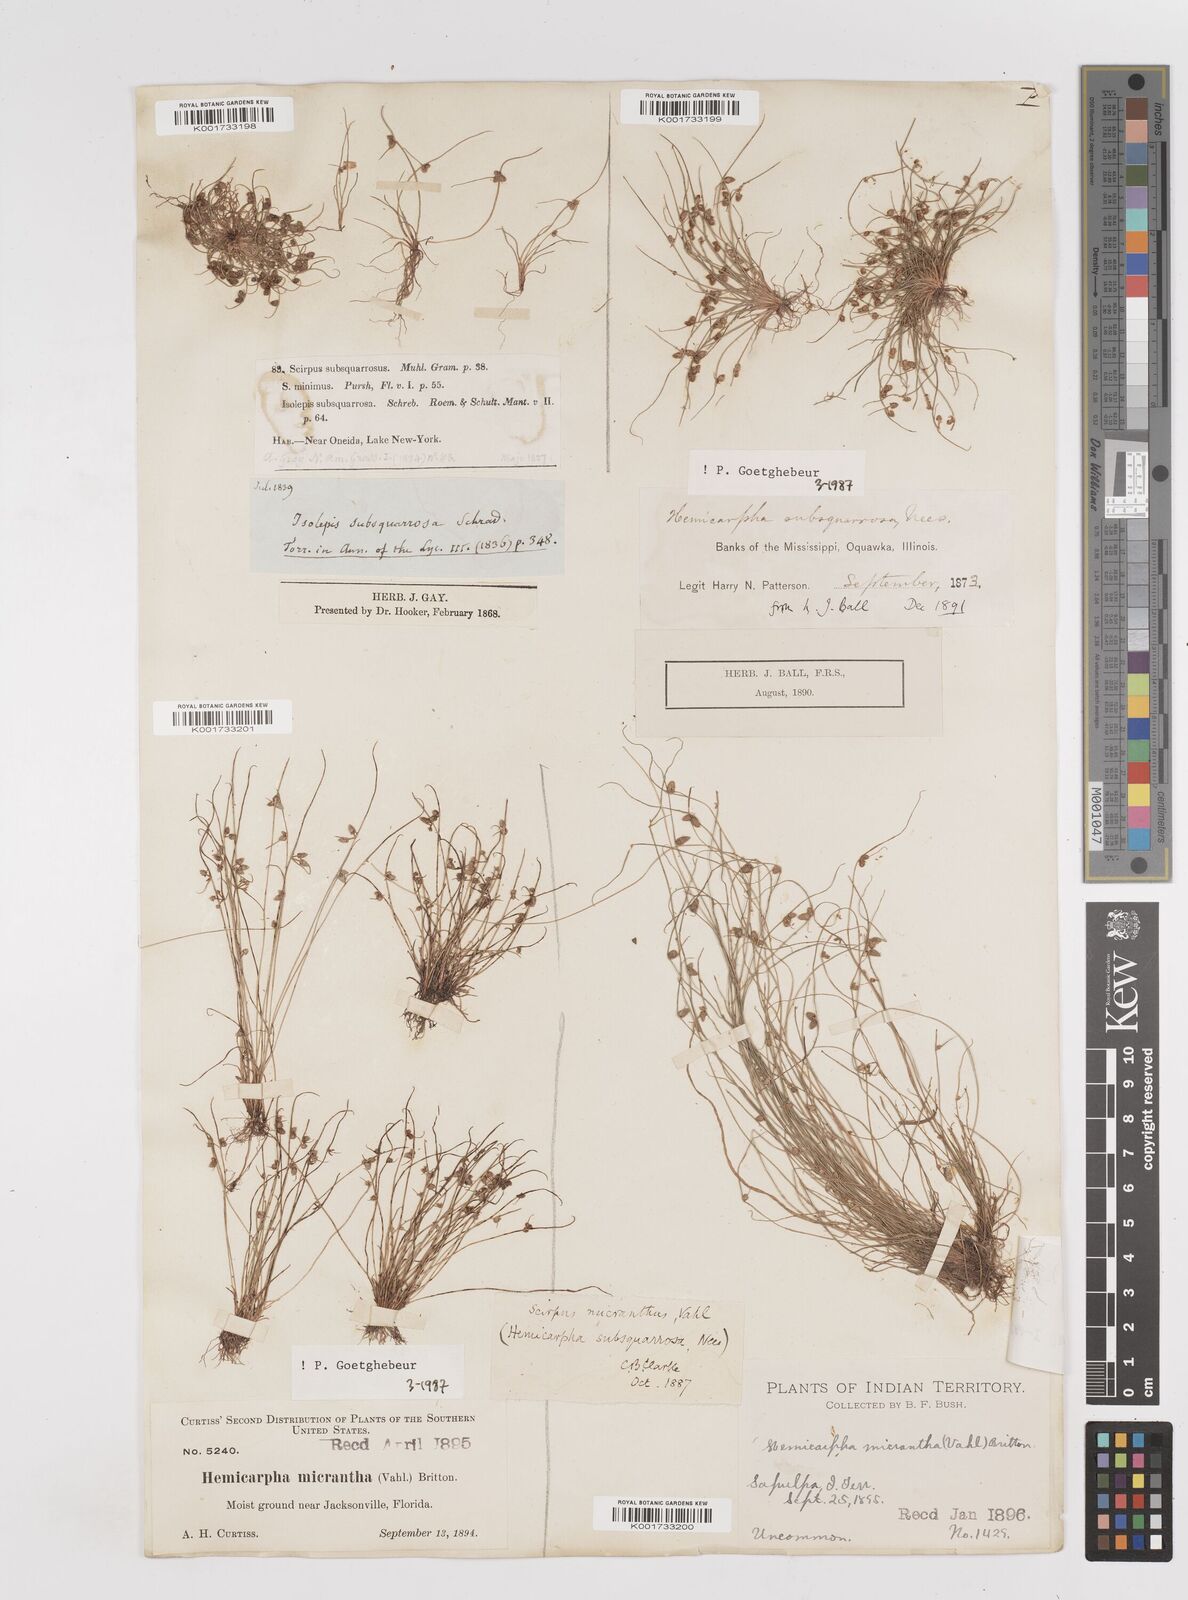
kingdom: Plantae
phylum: Tracheophyta
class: Liliopsida
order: Poales
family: Cyperaceae
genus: Cyperus
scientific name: Cyperus dentatus
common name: Dentate umbrella sedge
